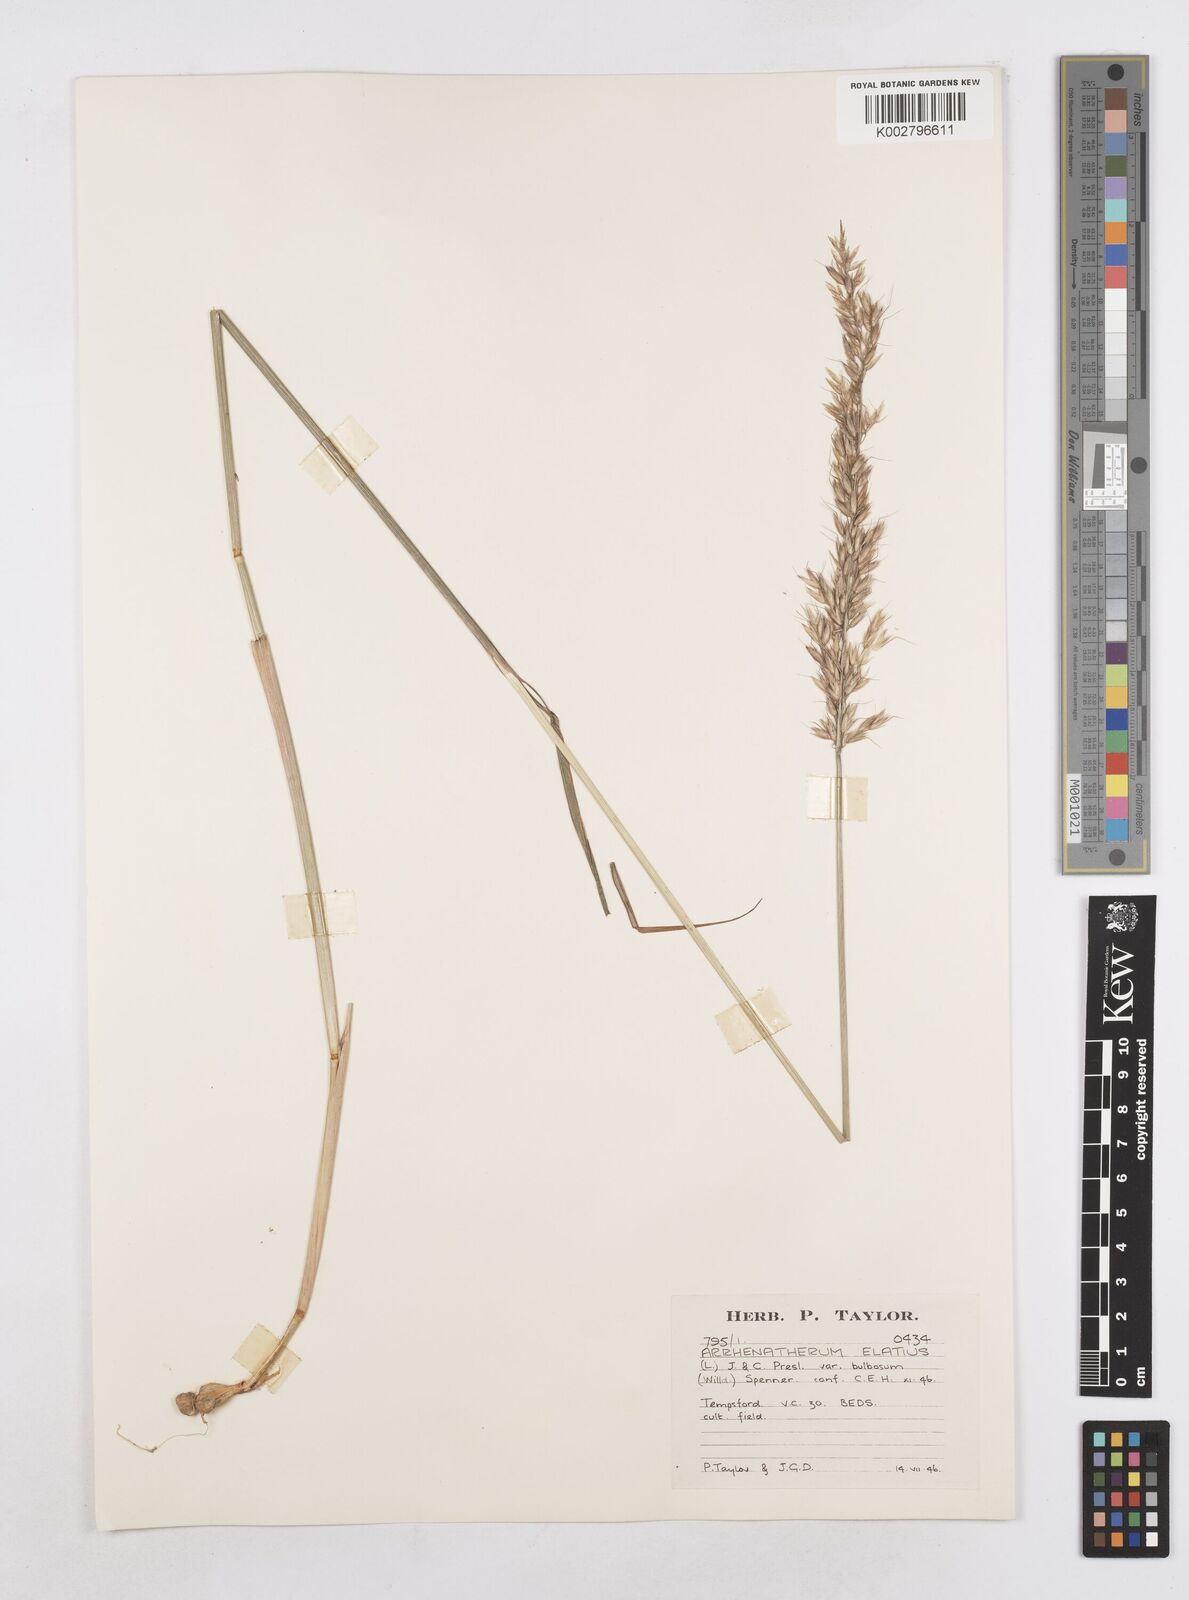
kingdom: Plantae
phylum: Tracheophyta
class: Liliopsida
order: Poales
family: Poaceae
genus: Arrhenatherum
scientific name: Arrhenatherum elatius
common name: Tall oatgrass
